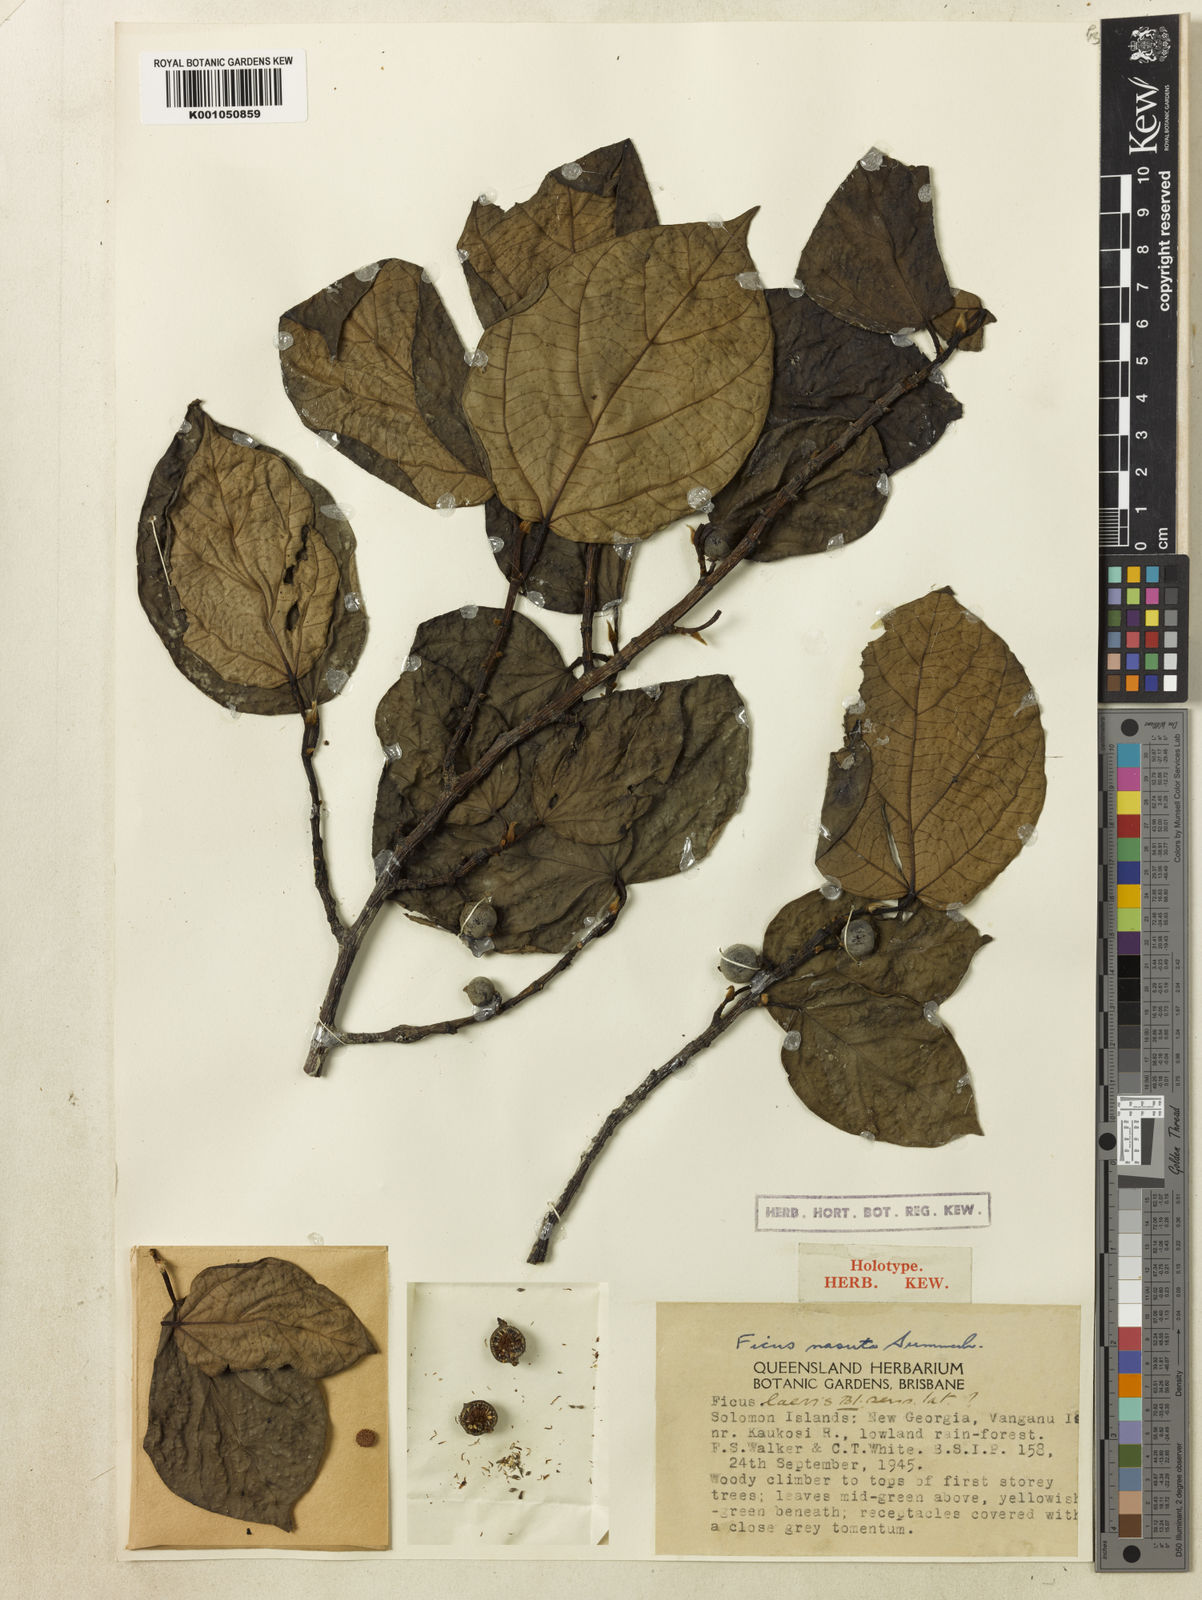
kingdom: Plantae
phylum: Tracheophyta
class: Magnoliopsida
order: Rosales
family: Moraceae
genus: Ficus
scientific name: Ficus nasuta
